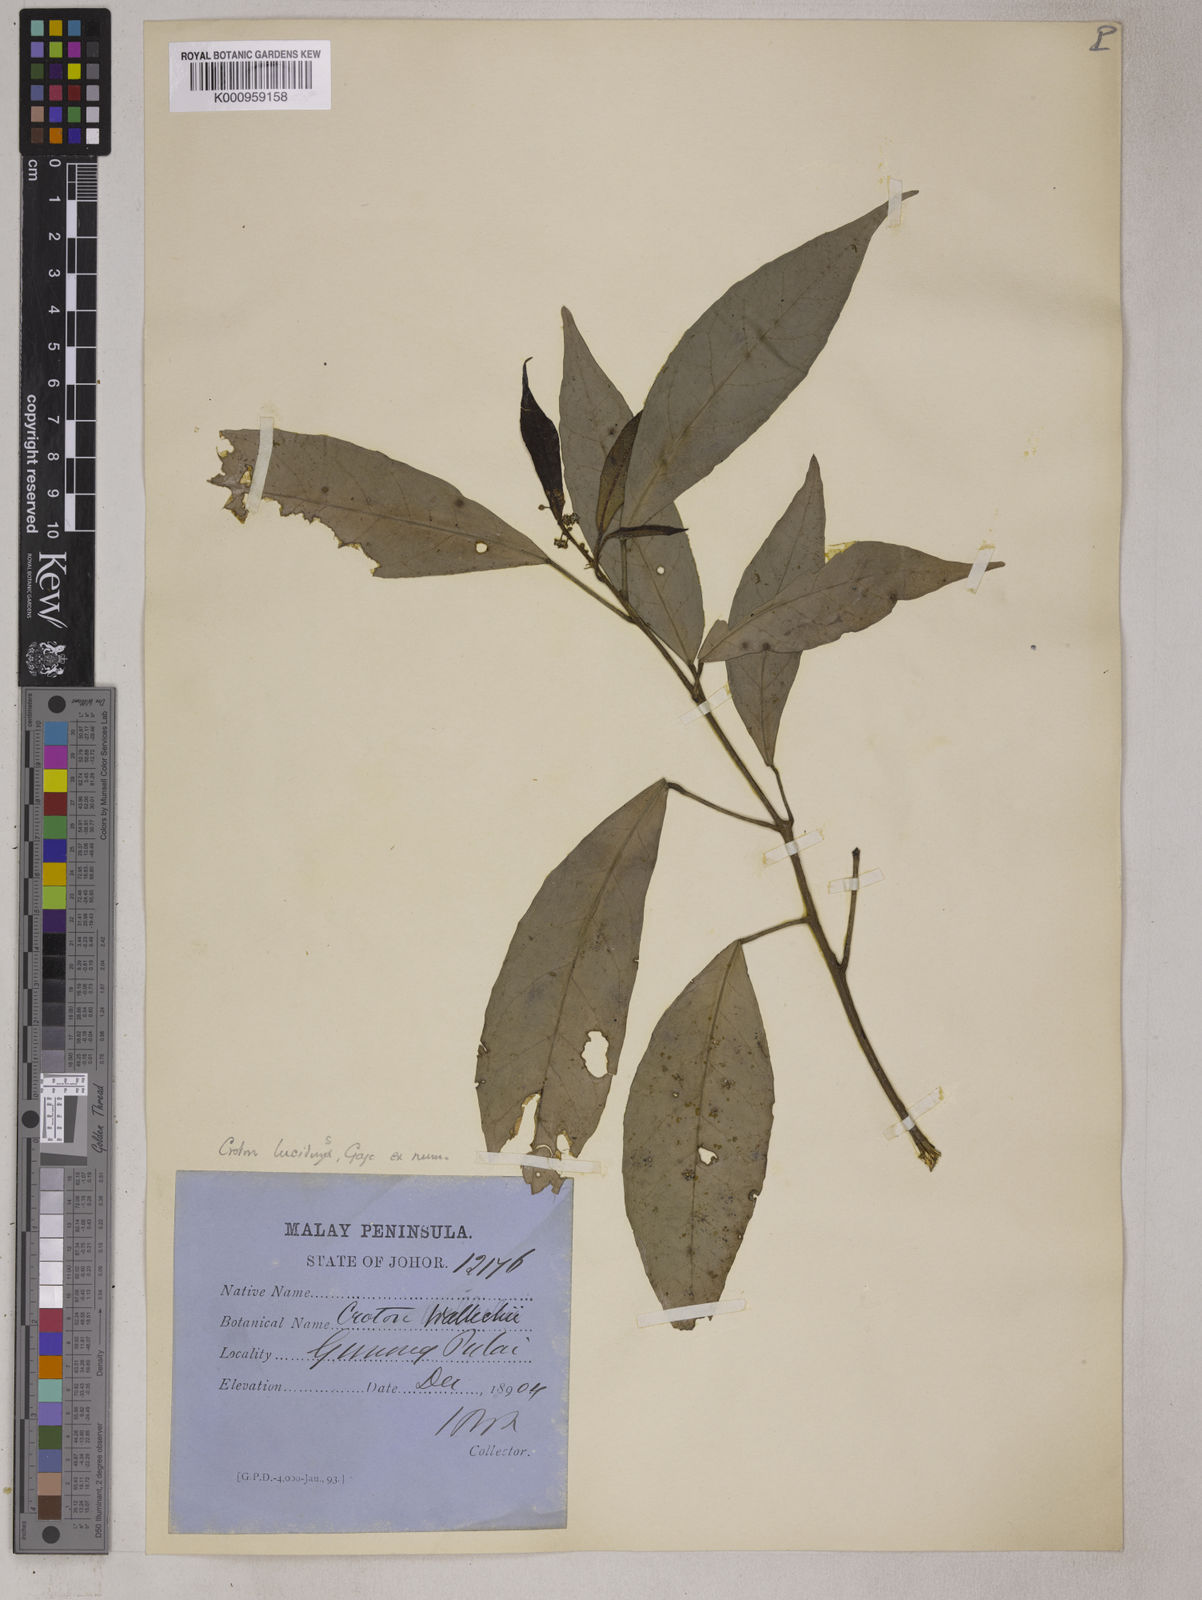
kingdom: Plantae
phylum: Tracheophyta
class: Magnoliopsida
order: Malpighiales
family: Euphorbiaceae
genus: Croton
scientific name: Croton gageanus
